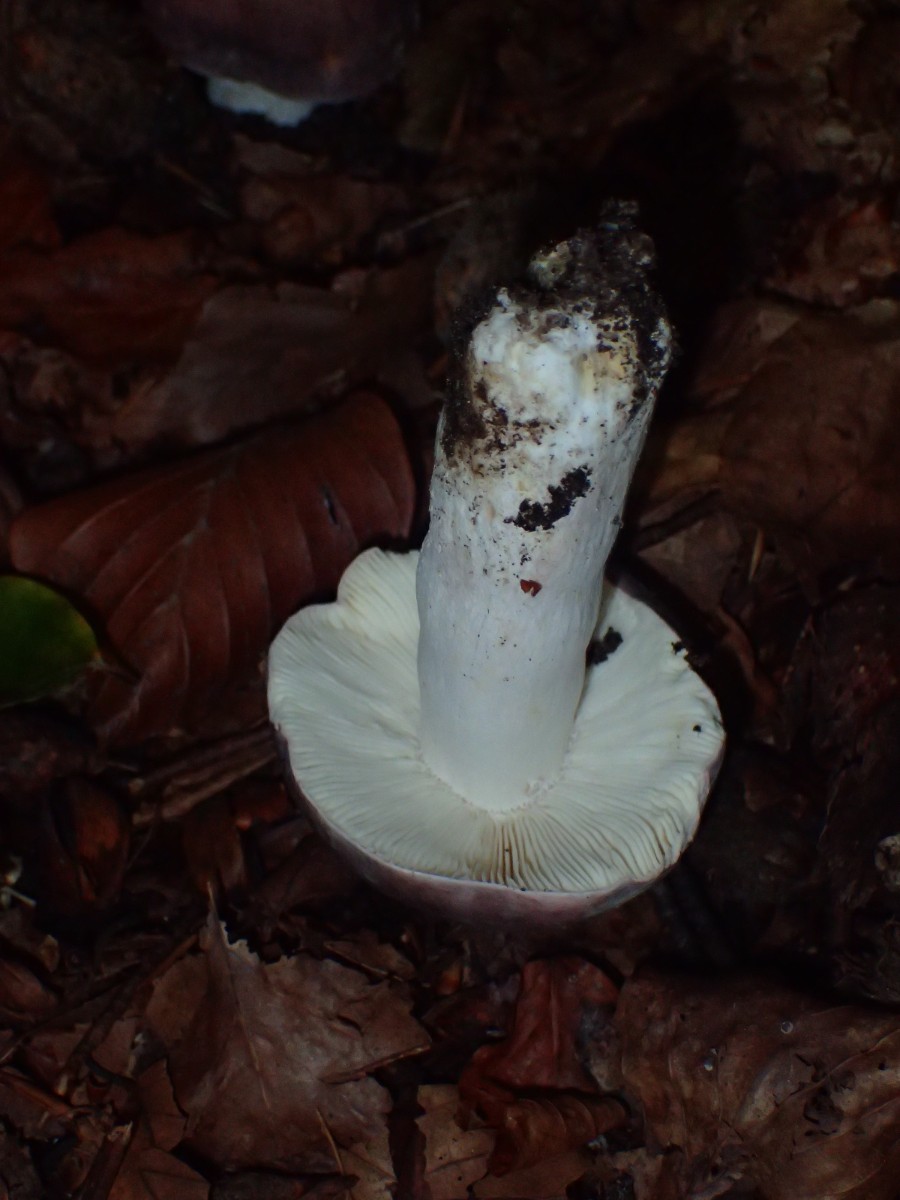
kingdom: Fungi
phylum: Basidiomycota
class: Agaricomycetes
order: Russulales
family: Russulaceae
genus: Russula
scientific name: Russula cyanoxantha
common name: broget skørhat
